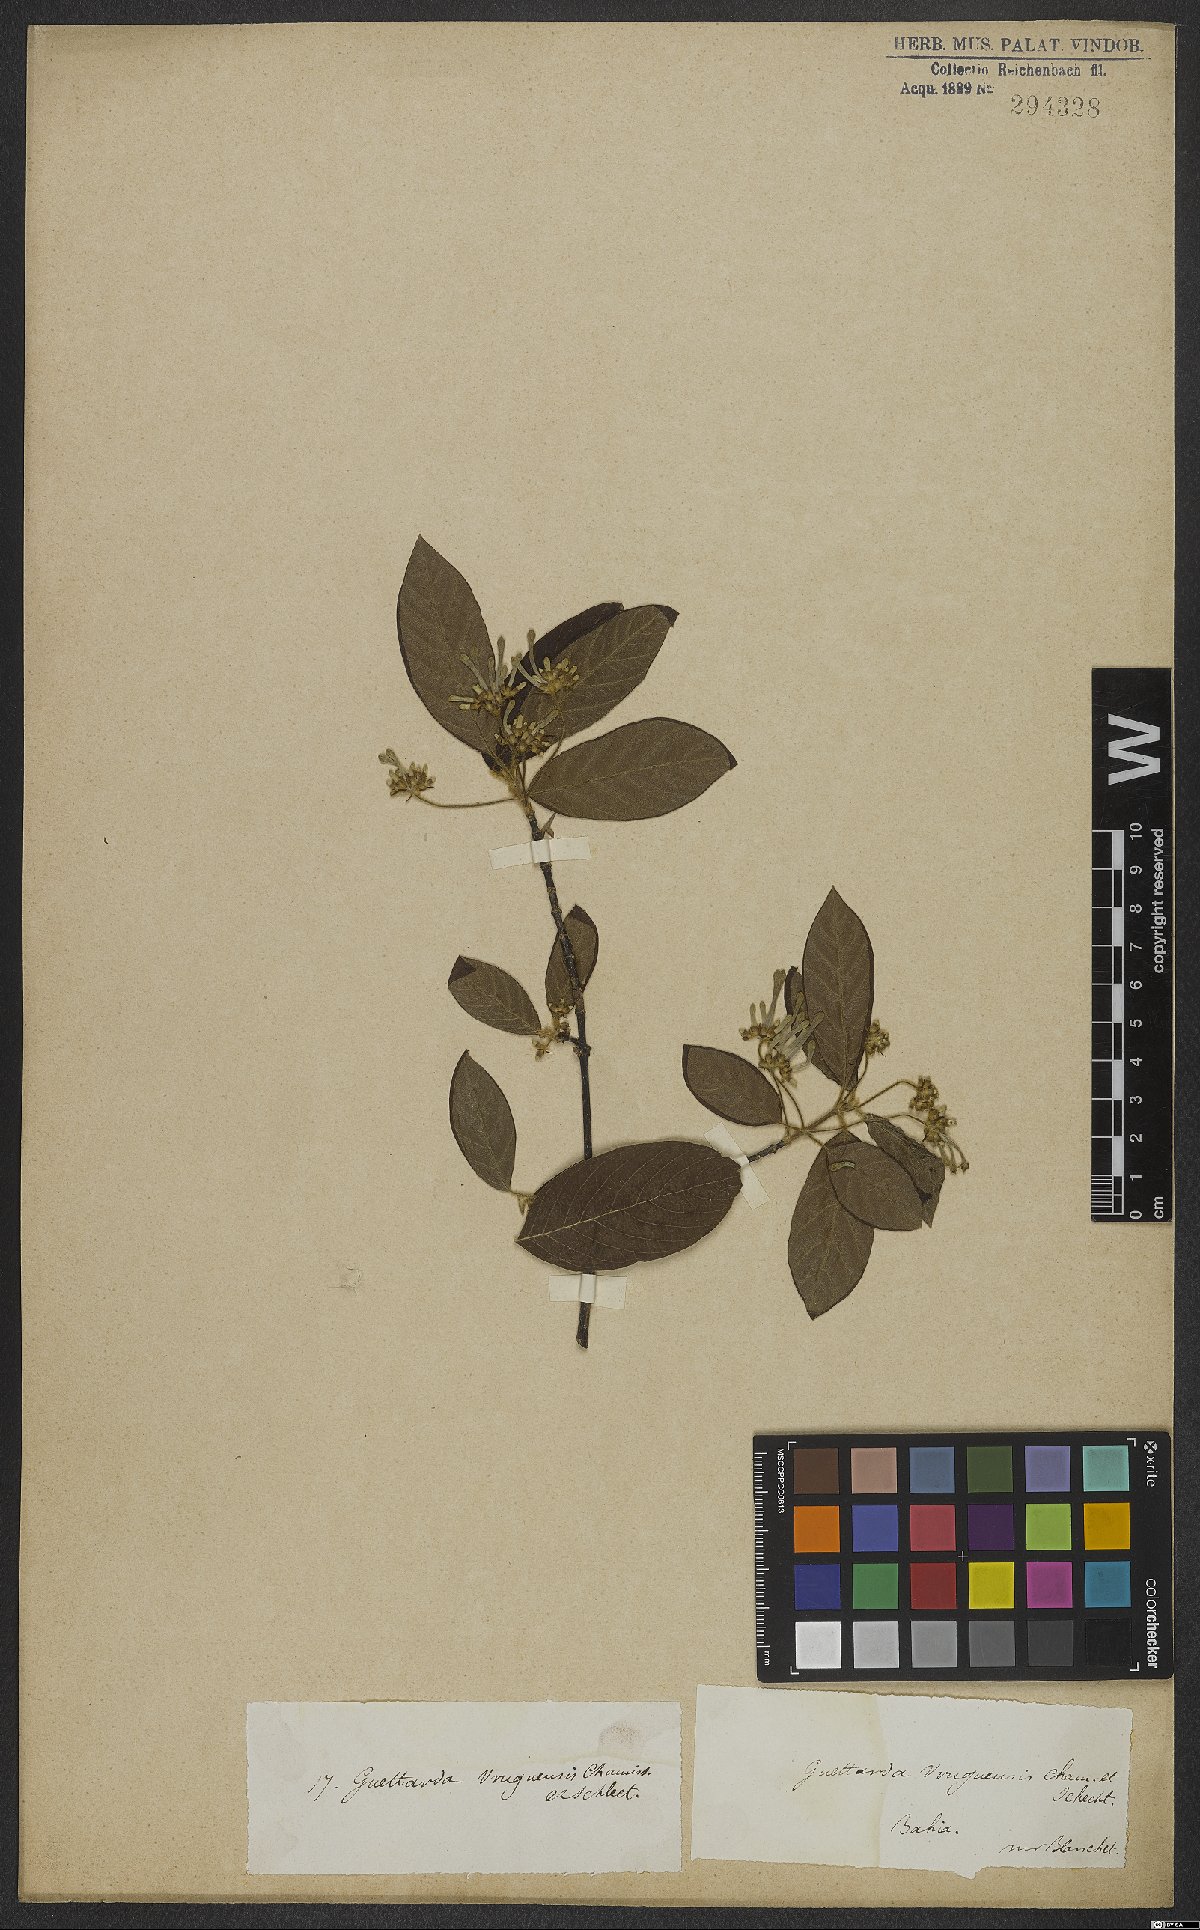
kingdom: Plantae
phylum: Tracheophyta
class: Magnoliopsida
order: Gentianales
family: Rubiaceae
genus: Guettarda
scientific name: Guettarda uruguensis
